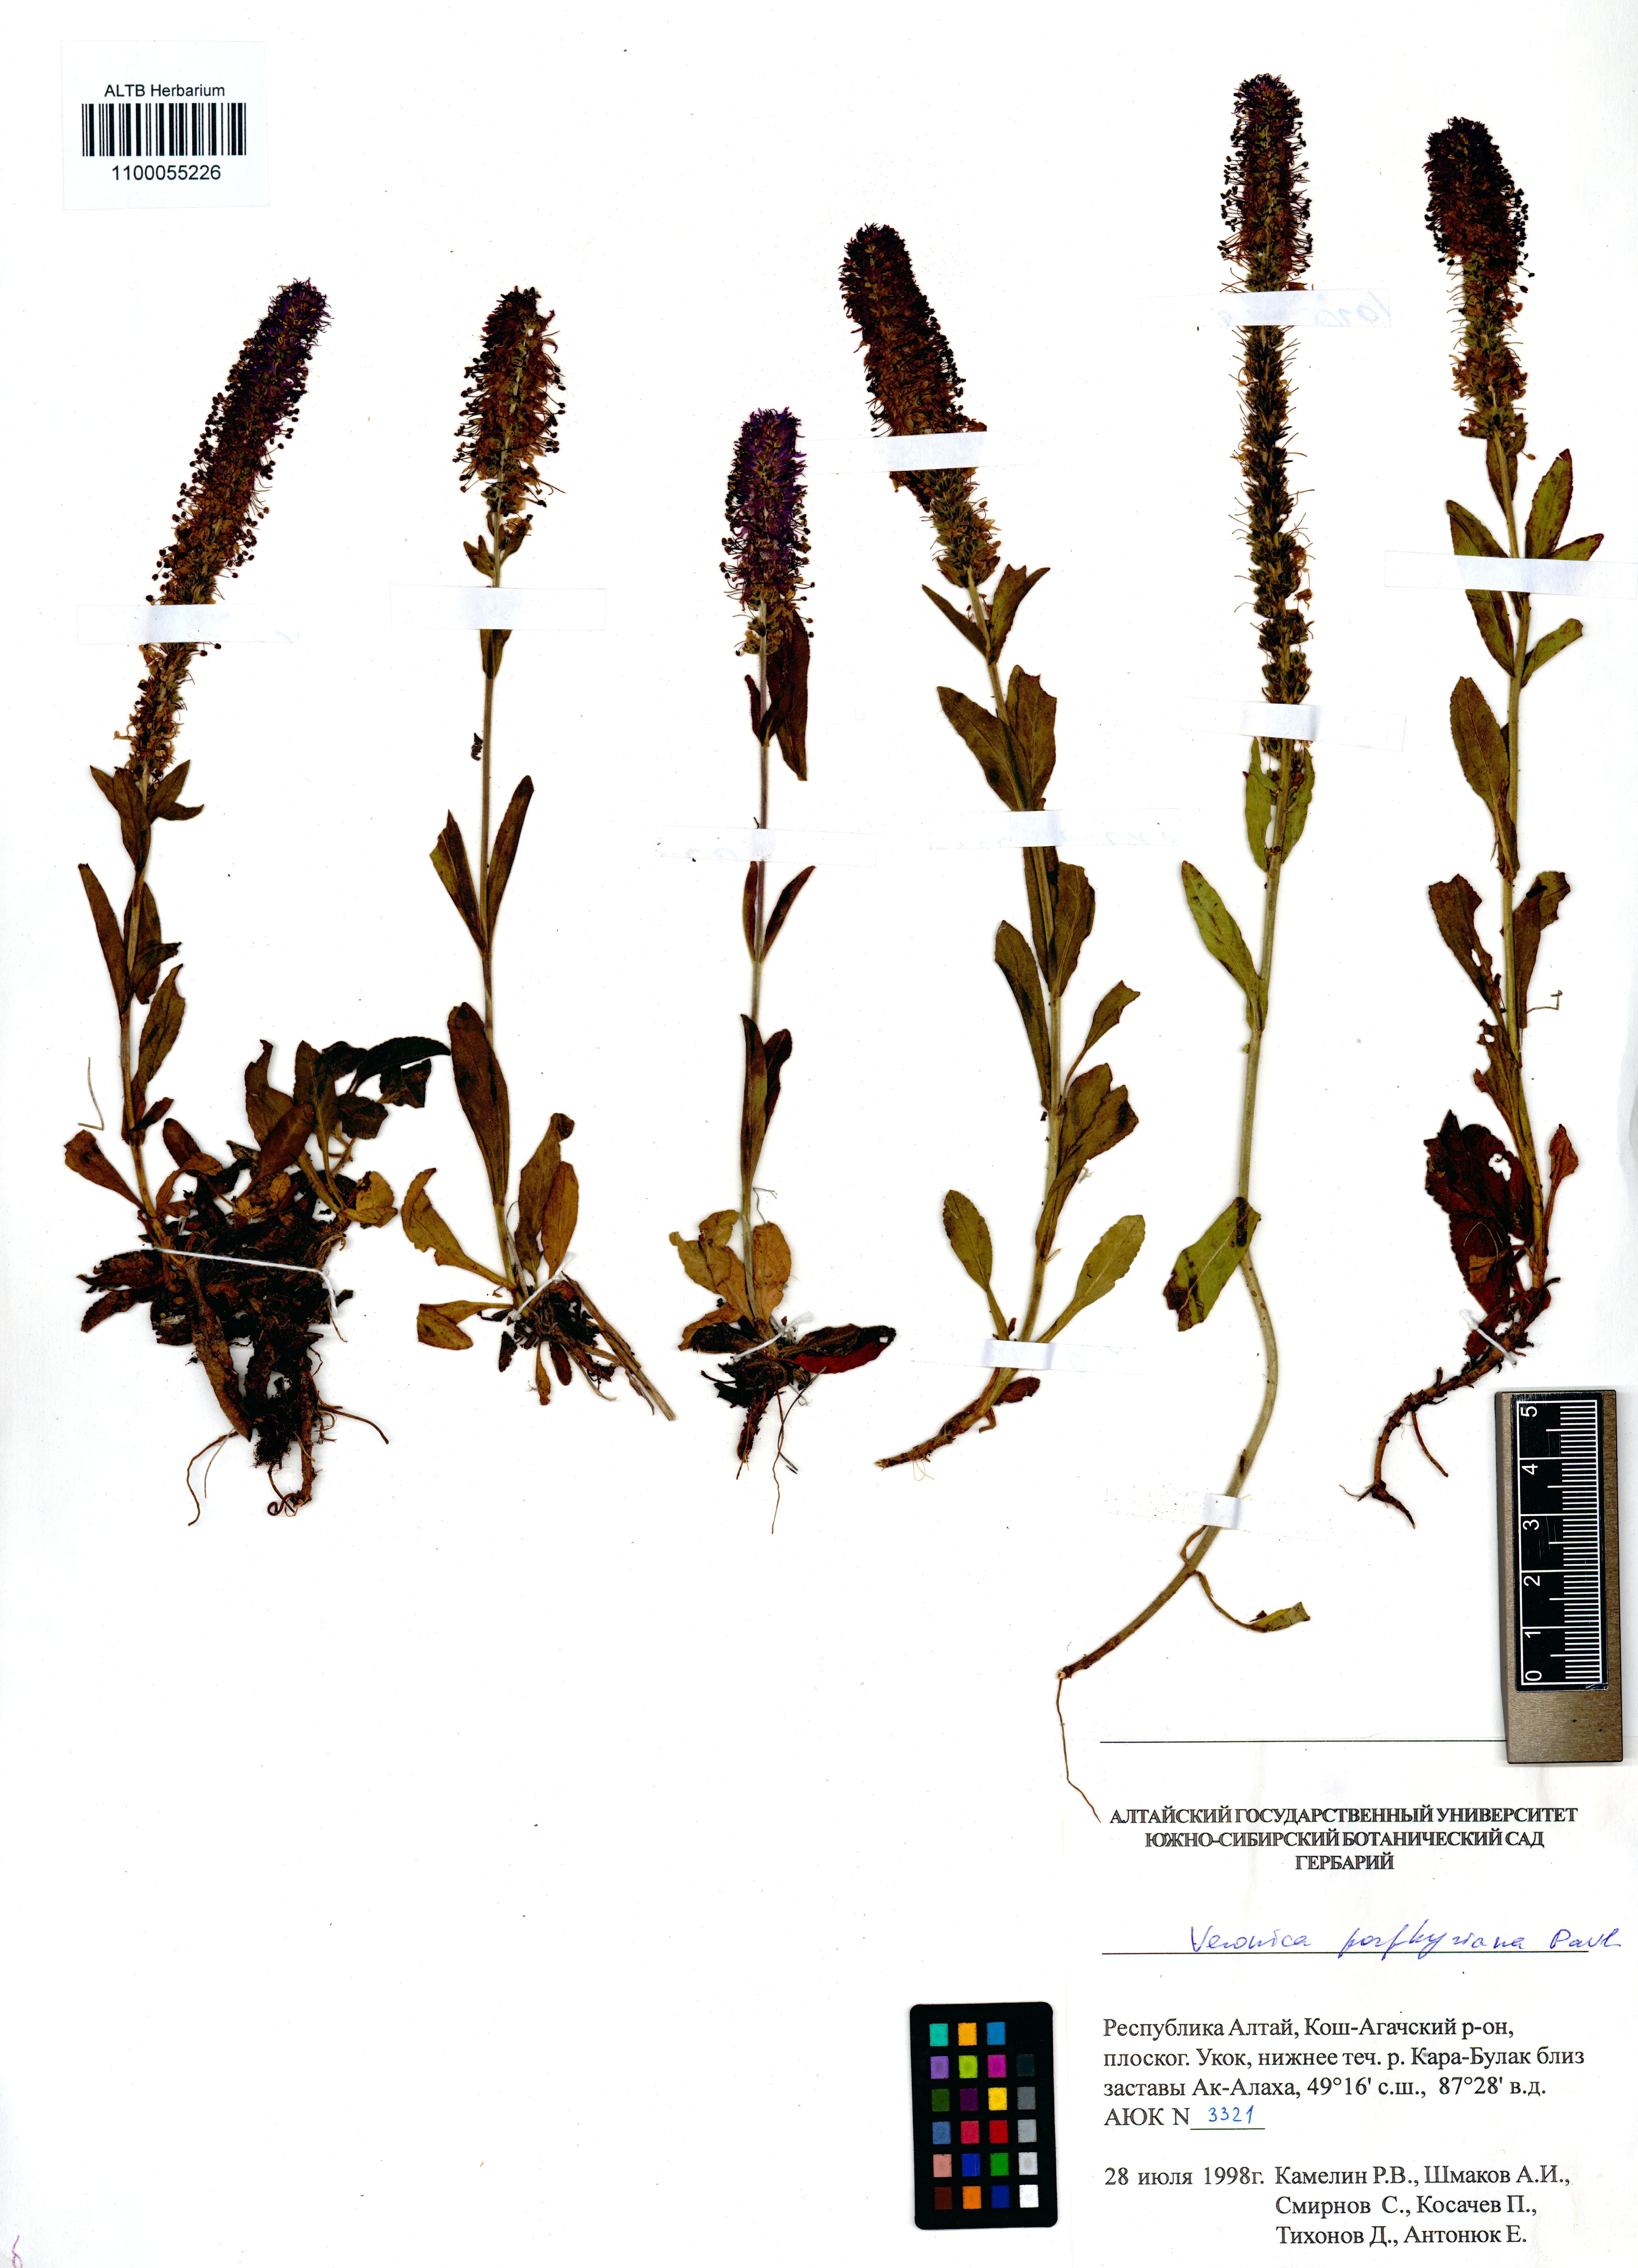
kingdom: Plantae
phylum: Tracheophyta
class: Magnoliopsida
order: Lamiales
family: Plantaginaceae
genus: Veronica
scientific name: Veronica porphyriana
